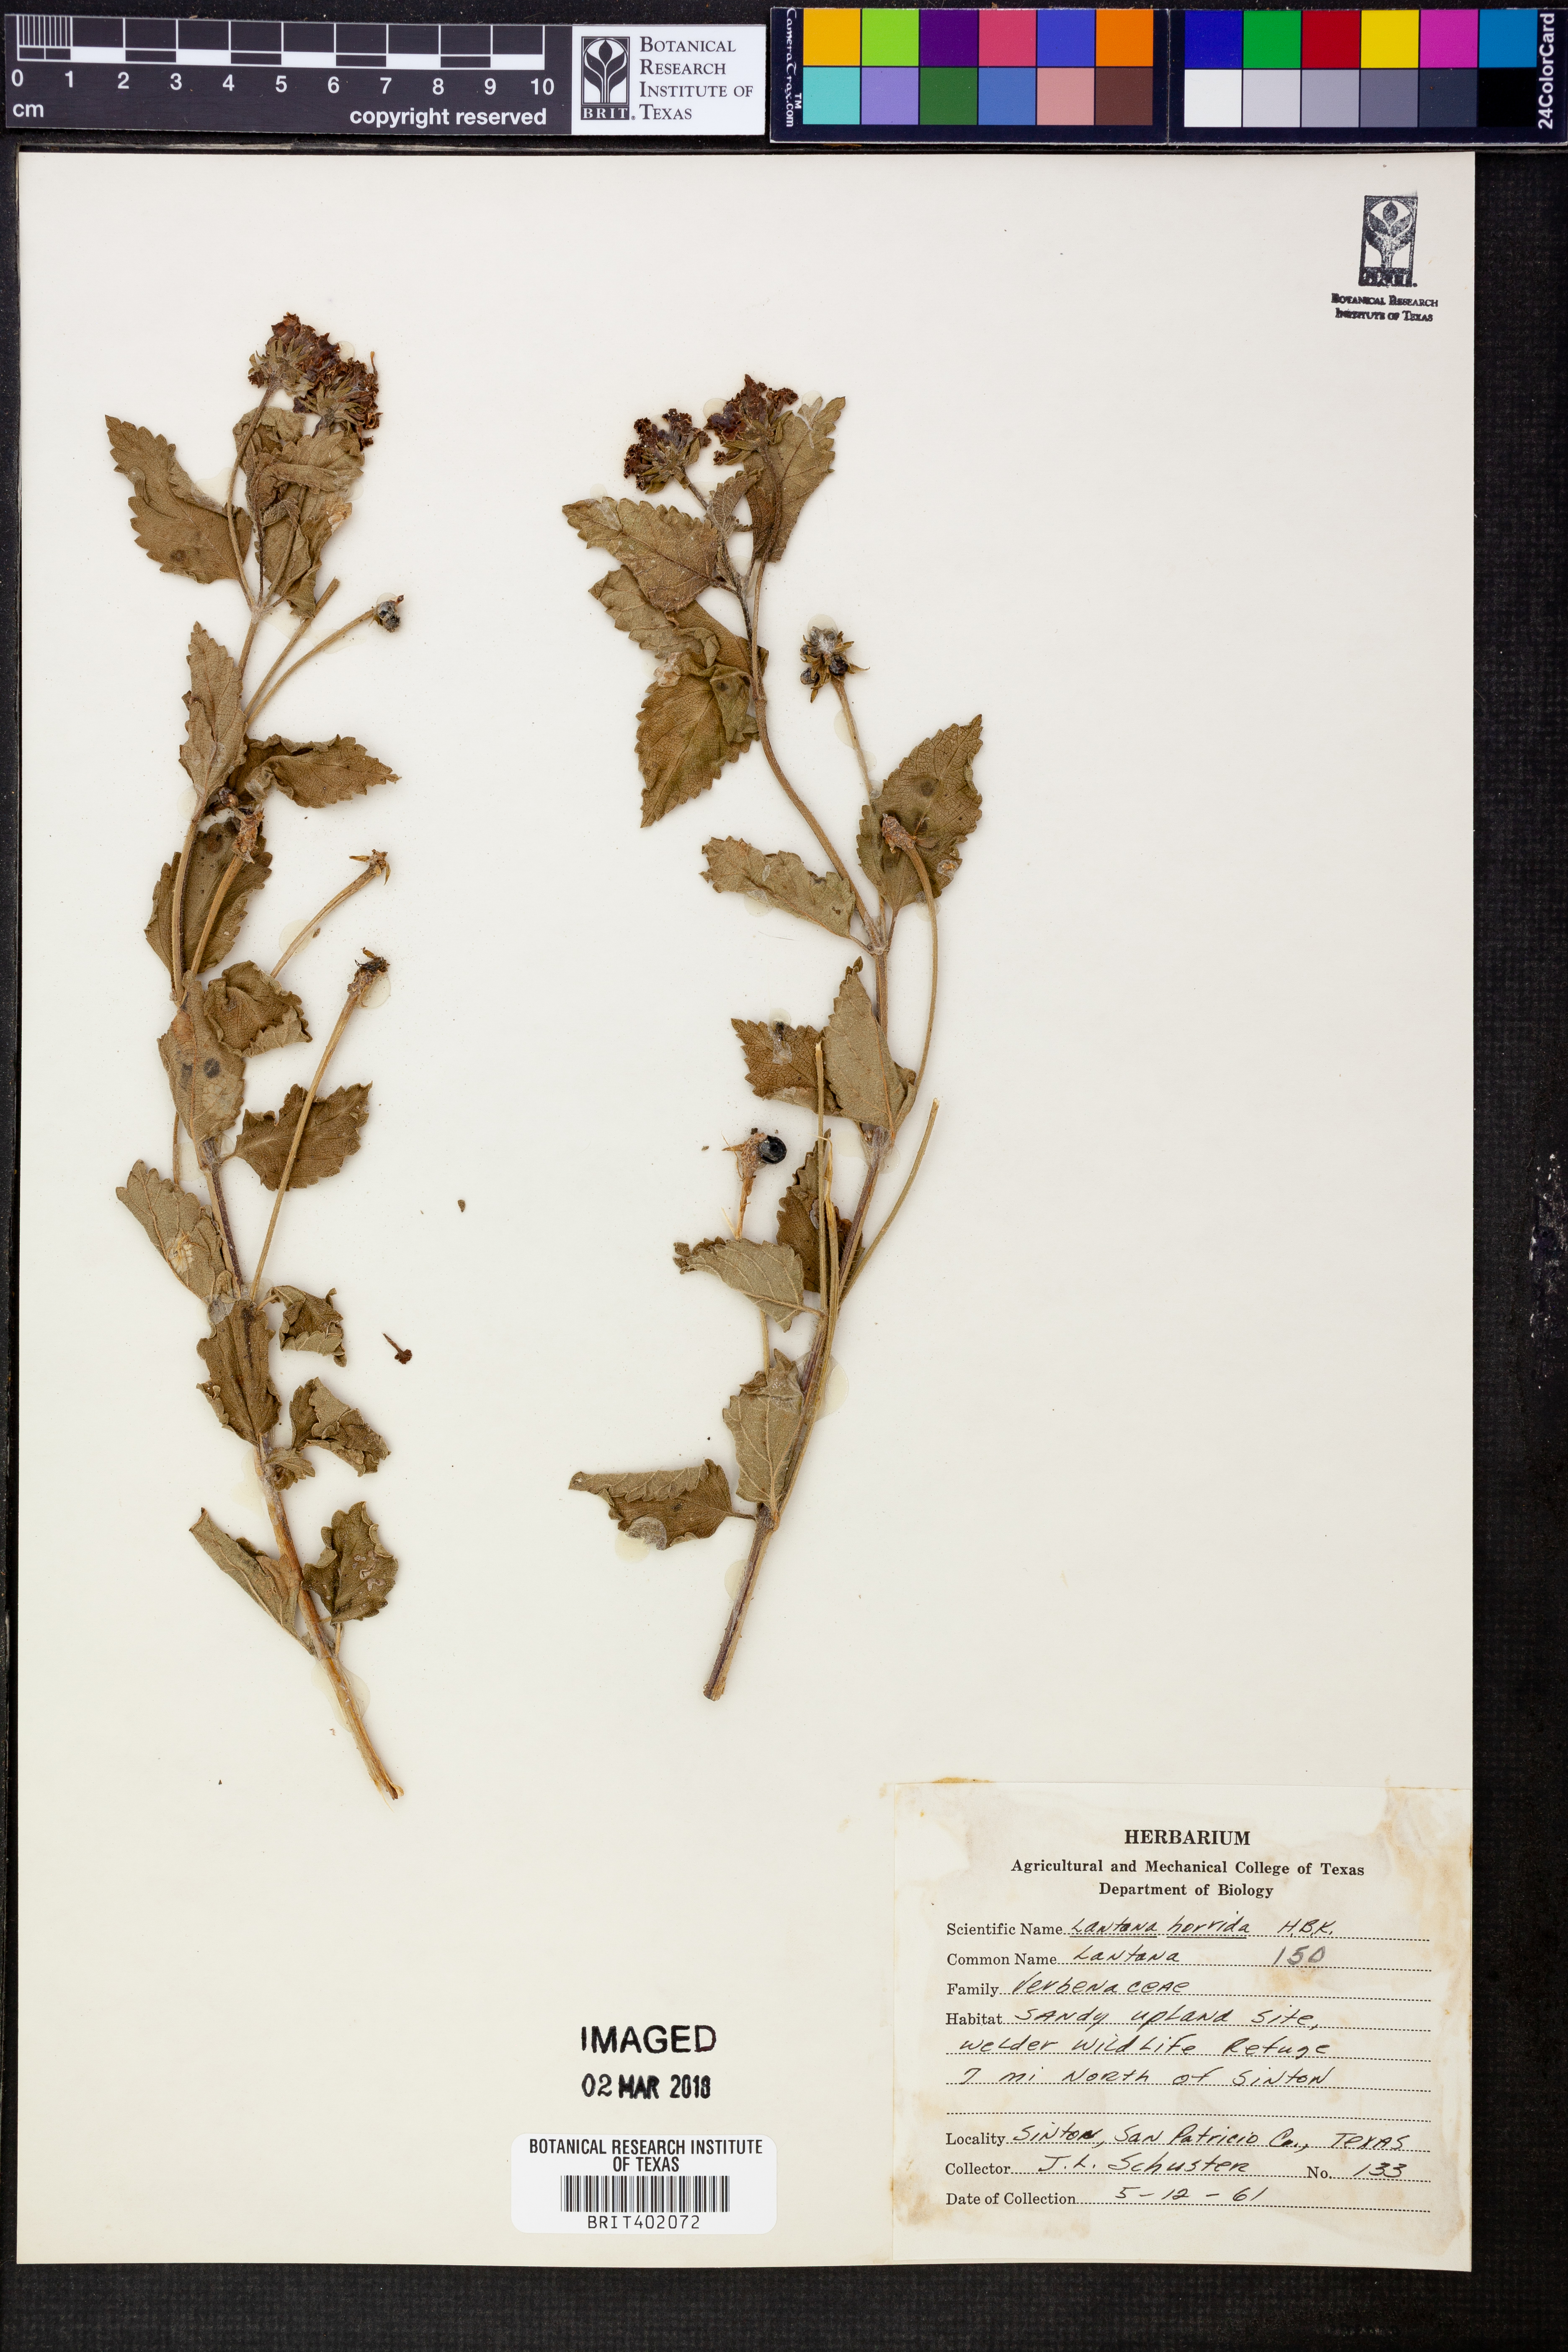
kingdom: Plantae
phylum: Tracheophyta
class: Magnoliopsida
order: Lamiales
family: Verbenaceae
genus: Lantana
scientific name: Lantana horrida
